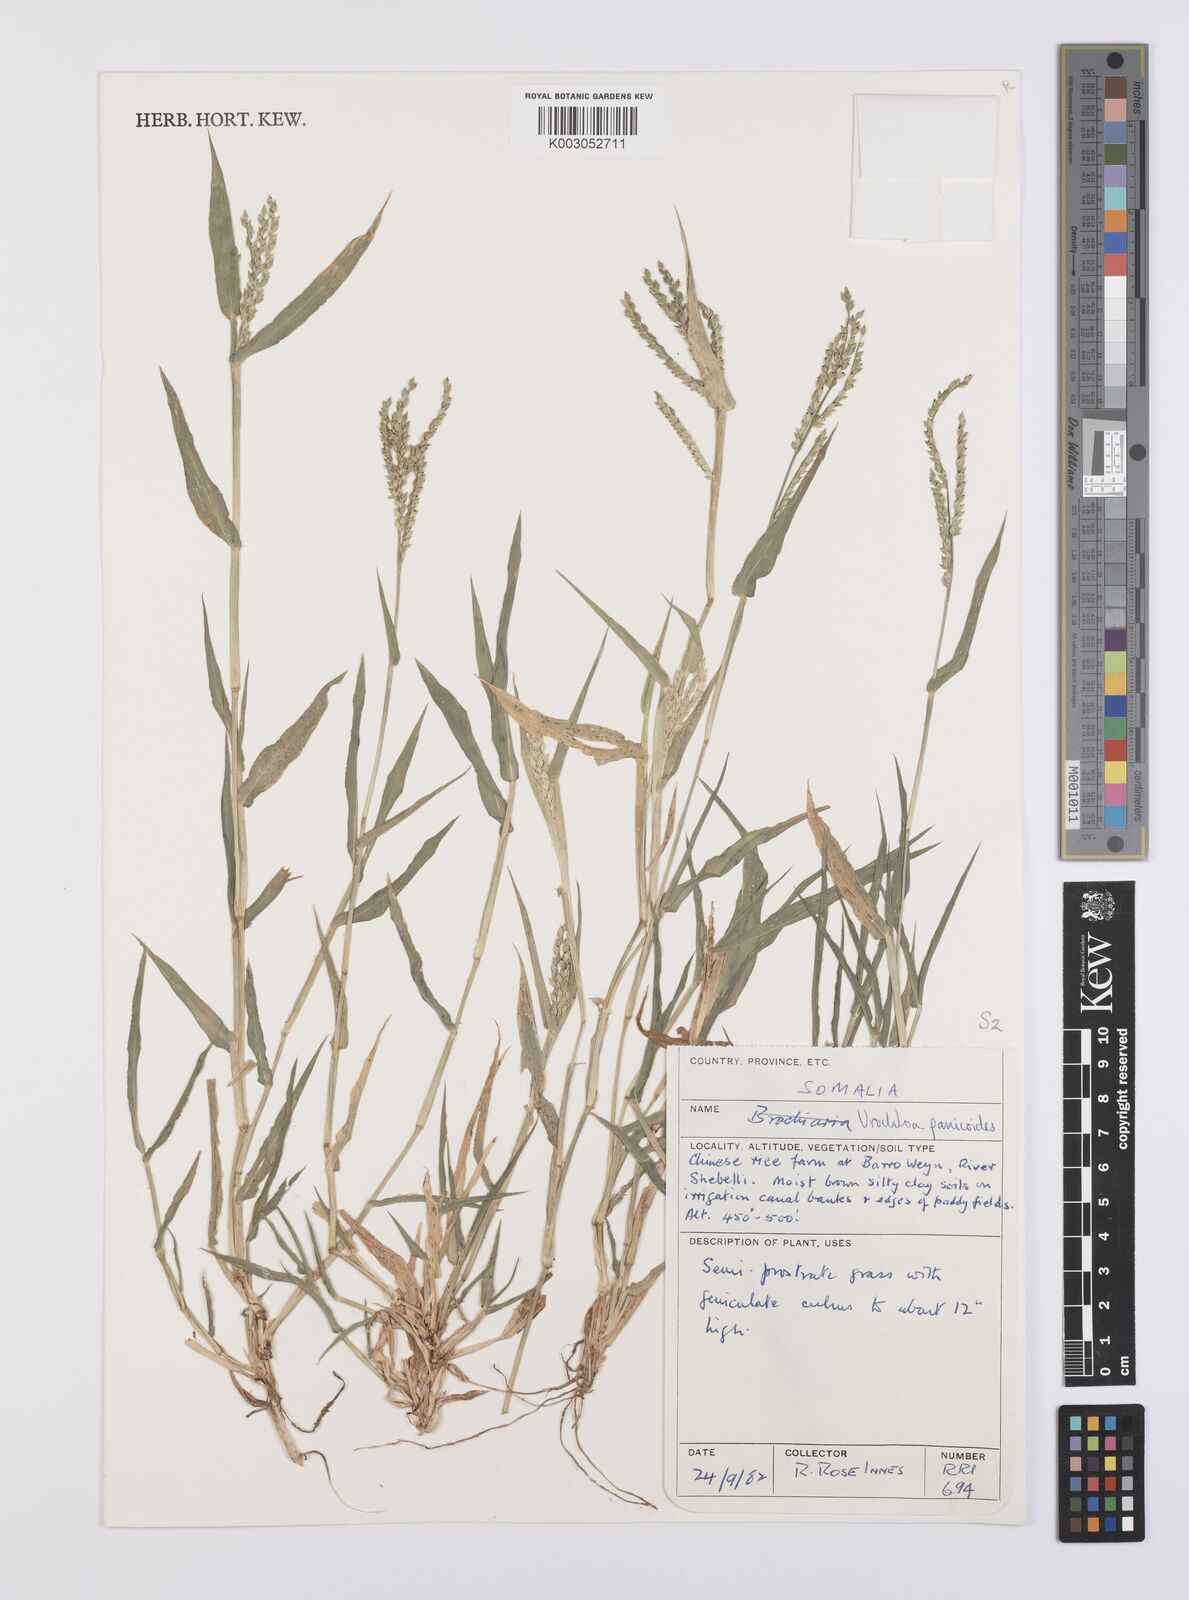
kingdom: Plantae
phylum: Tracheophyta
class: Liliopsida
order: Poales
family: Poaceae
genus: Urochloa
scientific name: Urochloa panicoides
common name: Sharp-flowered signal-grass
